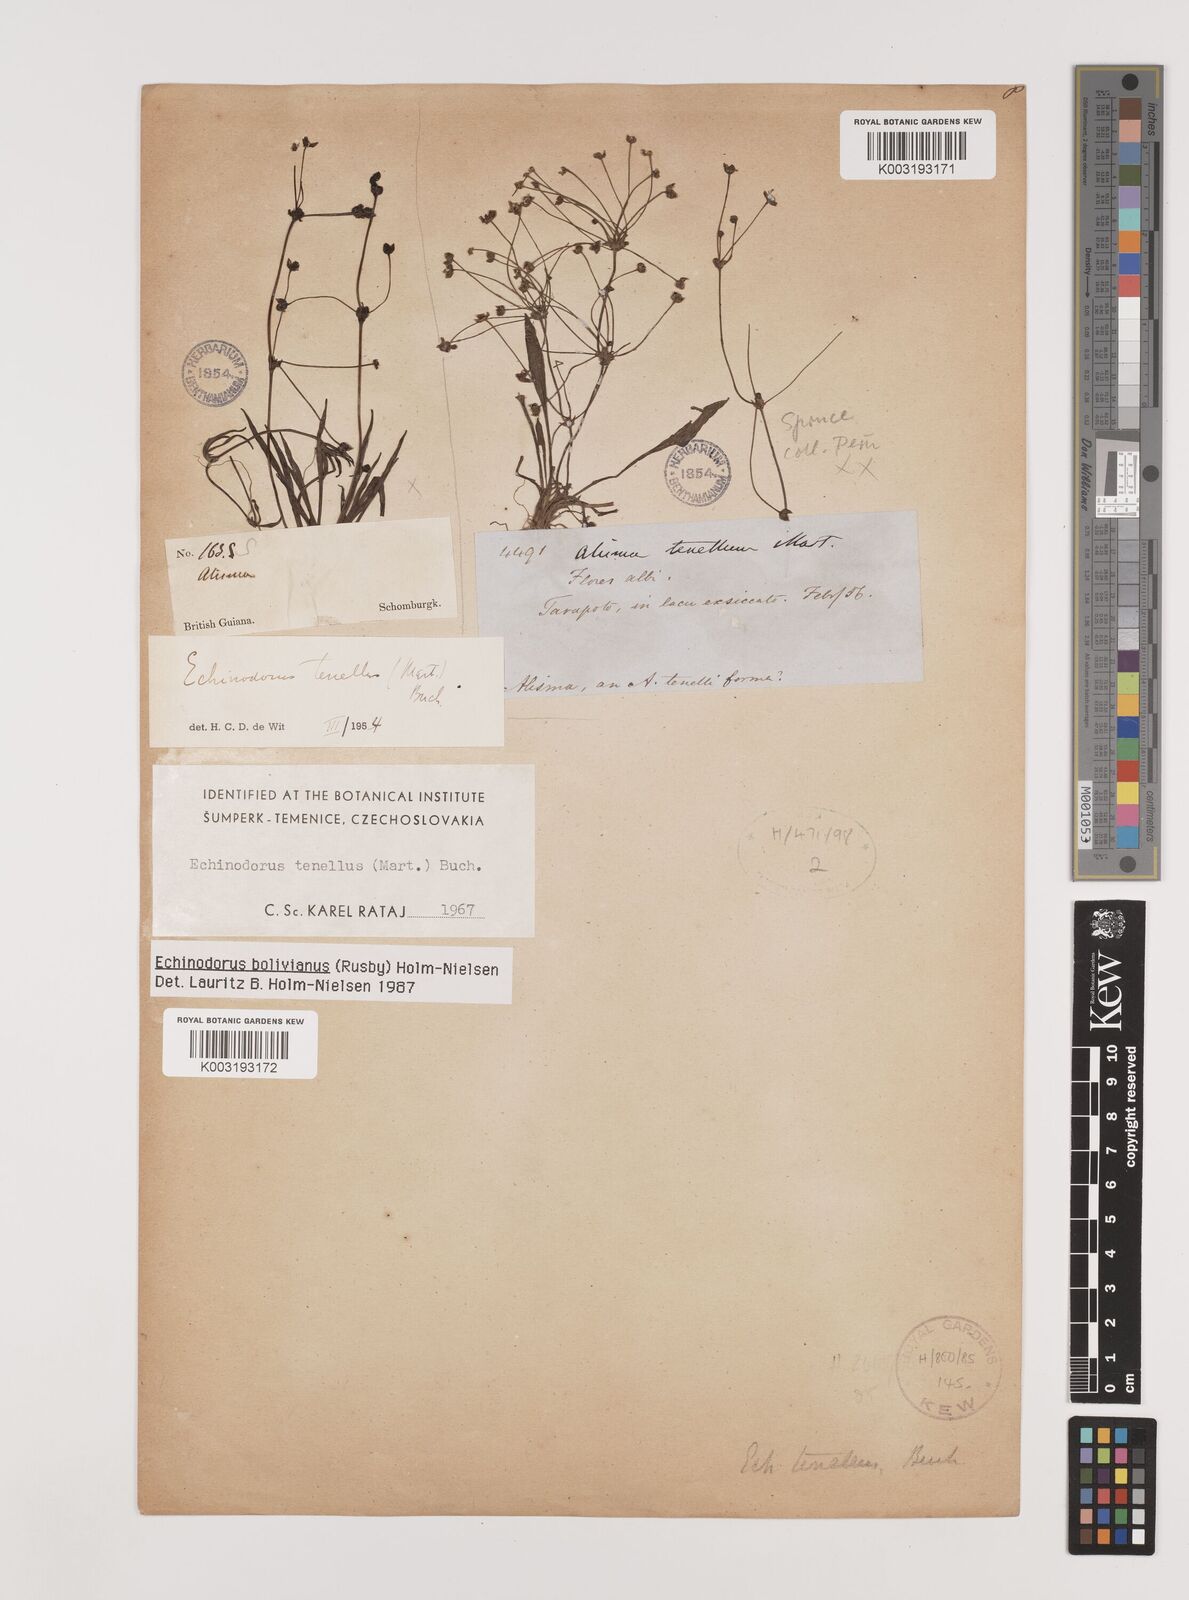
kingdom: Plantae
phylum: Tracheophyta
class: Liliopsida
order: Alismatales
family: Alismataceae
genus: Helanthium
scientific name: Helanthium tenellum
